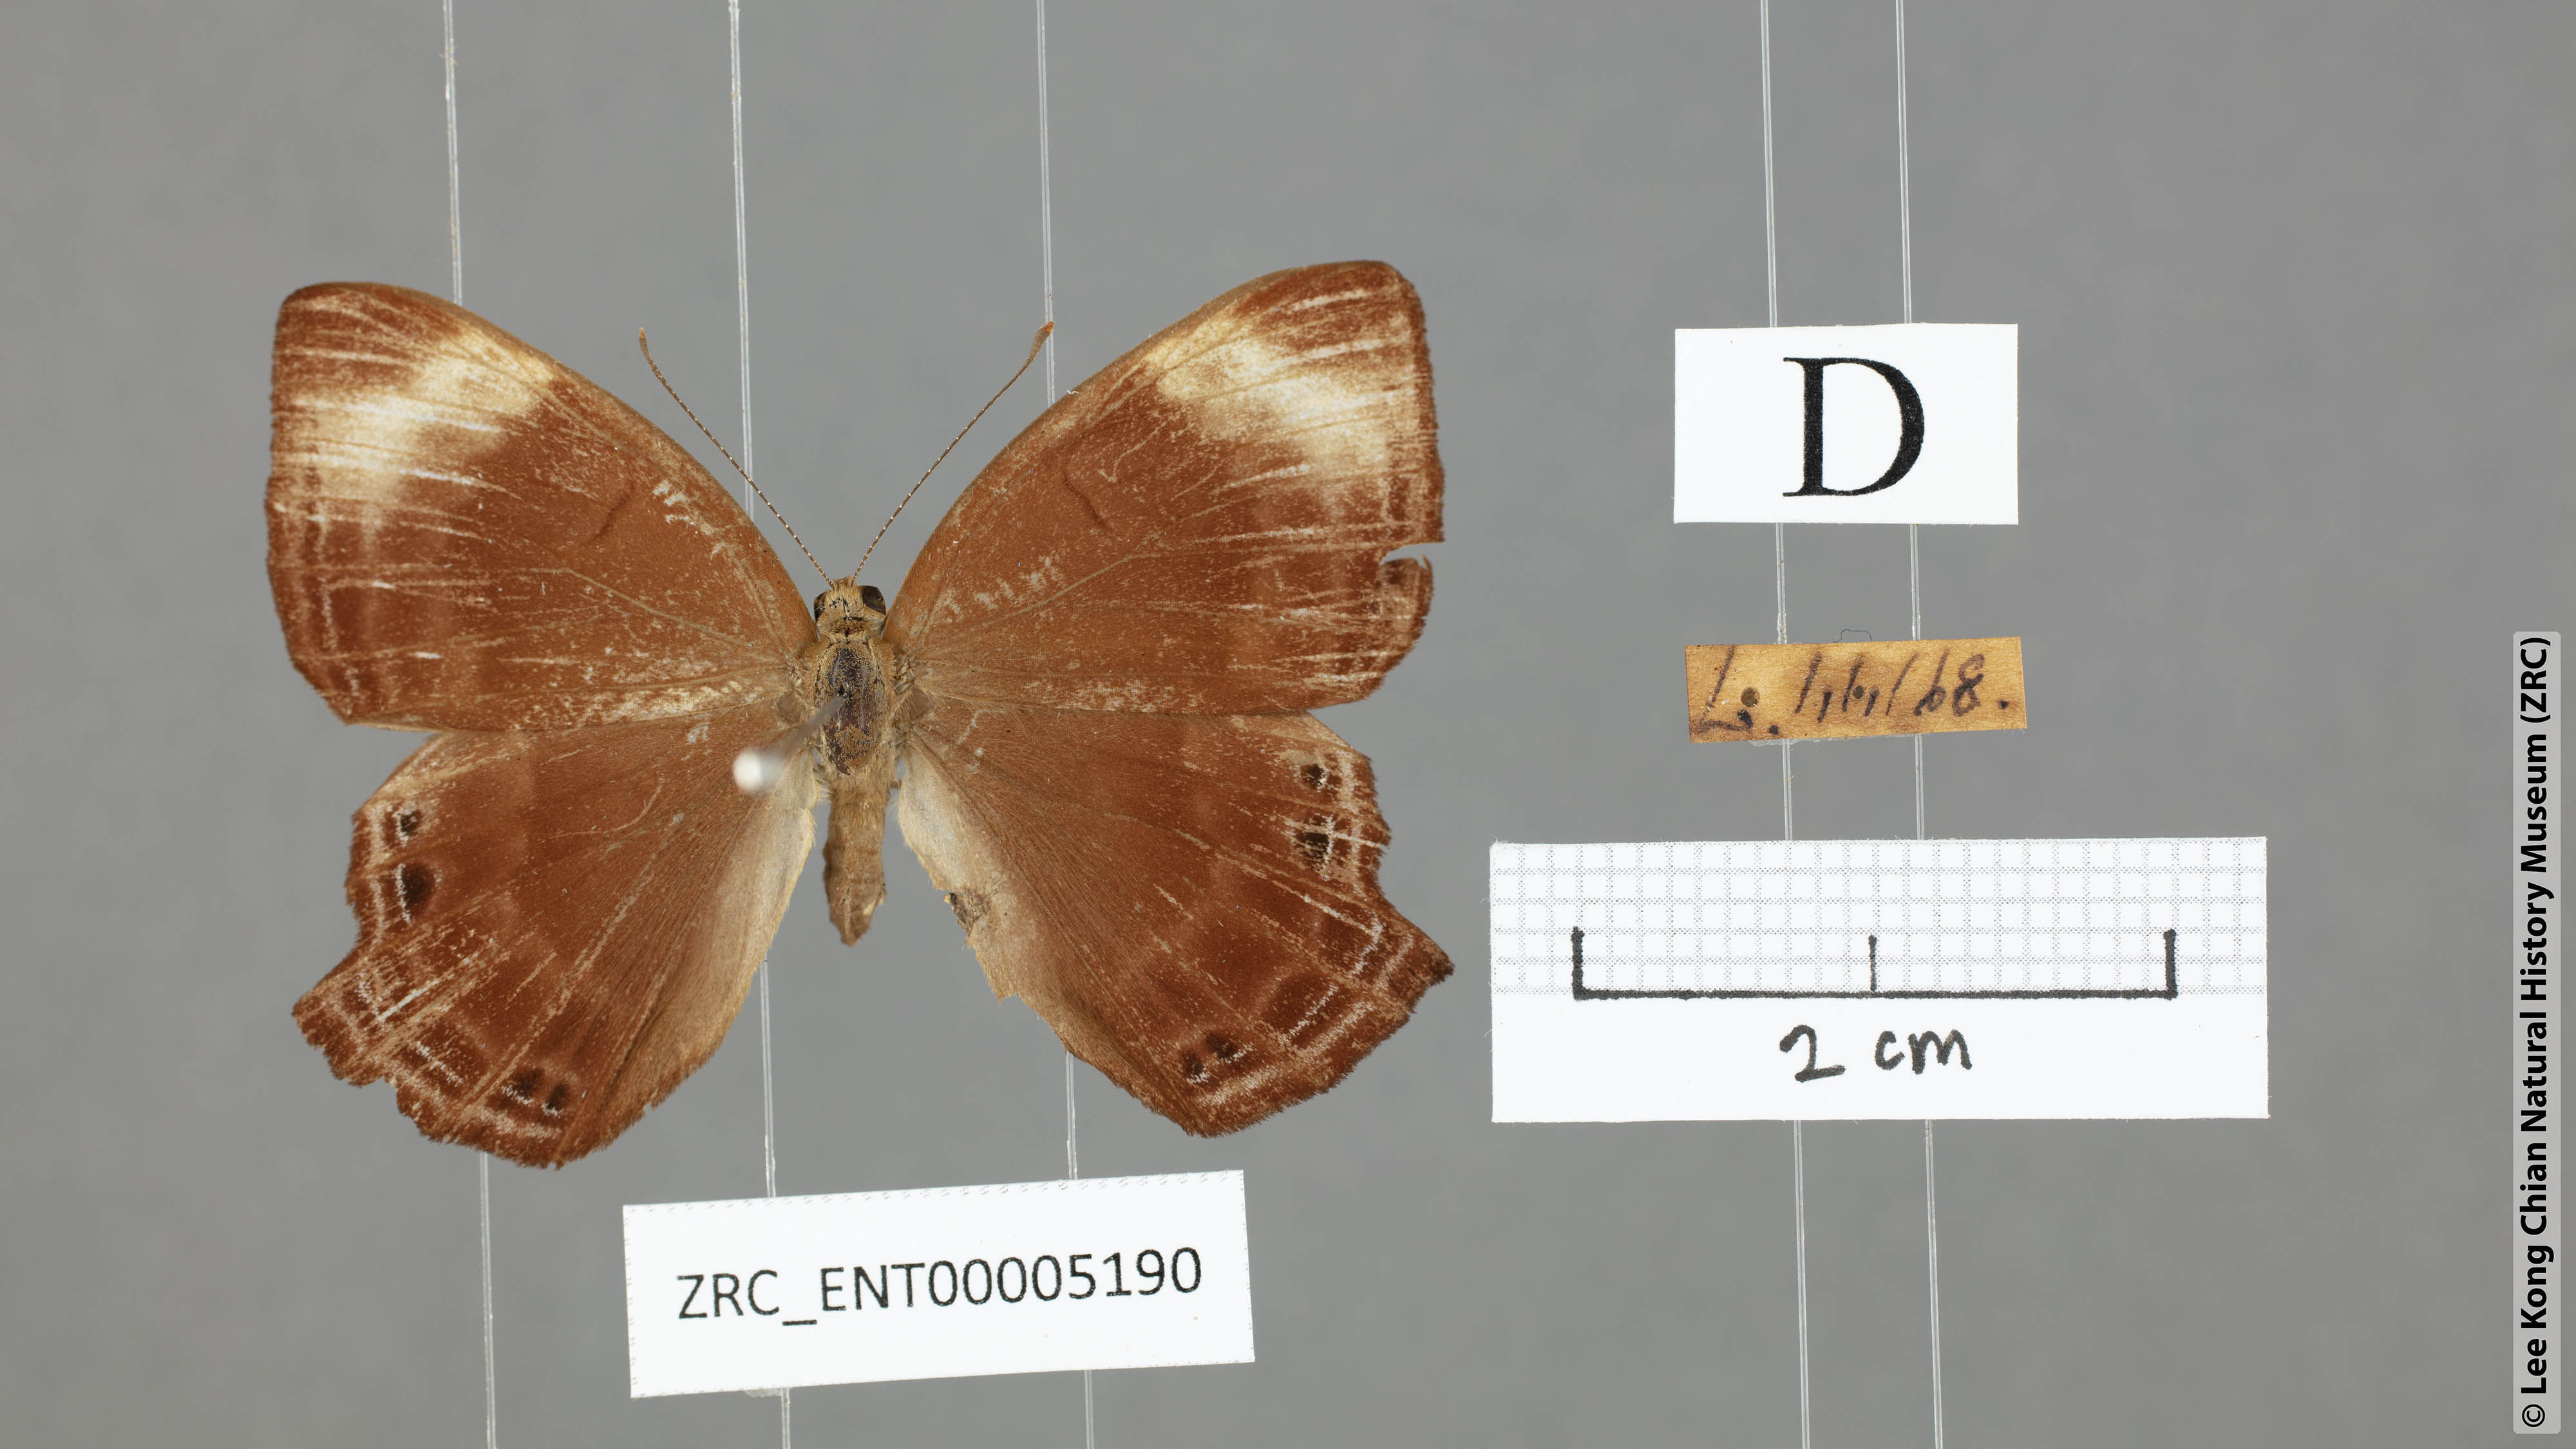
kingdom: Animalia
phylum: Arthropoda
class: Insecta
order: Lepidoptera
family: Lycaenidae
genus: Abisara
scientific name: Abisara saturata
